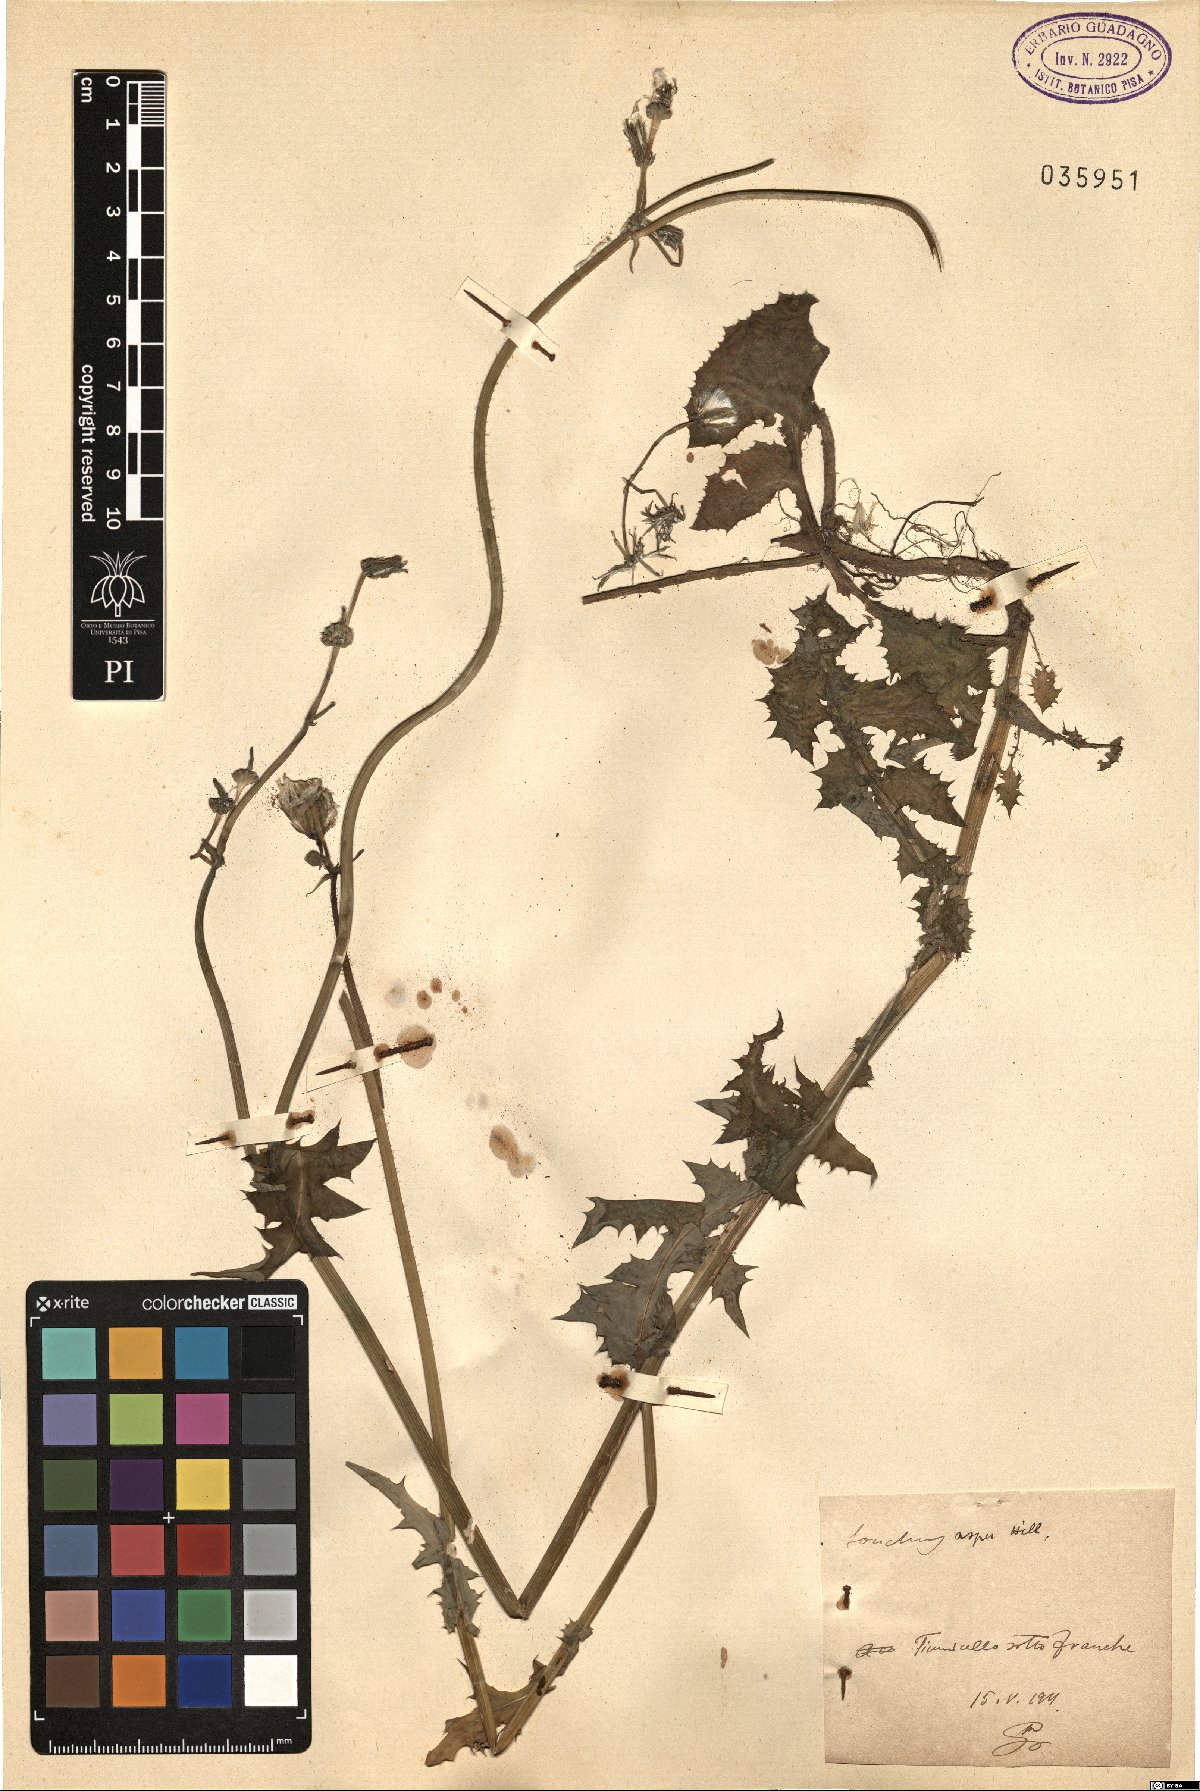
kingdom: Plantae
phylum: Tracheophyta
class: Magnoliopsida
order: Asterales
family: Asteraceae
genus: Sonchus
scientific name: Sonchus asper
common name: Prickly sow-thistle
